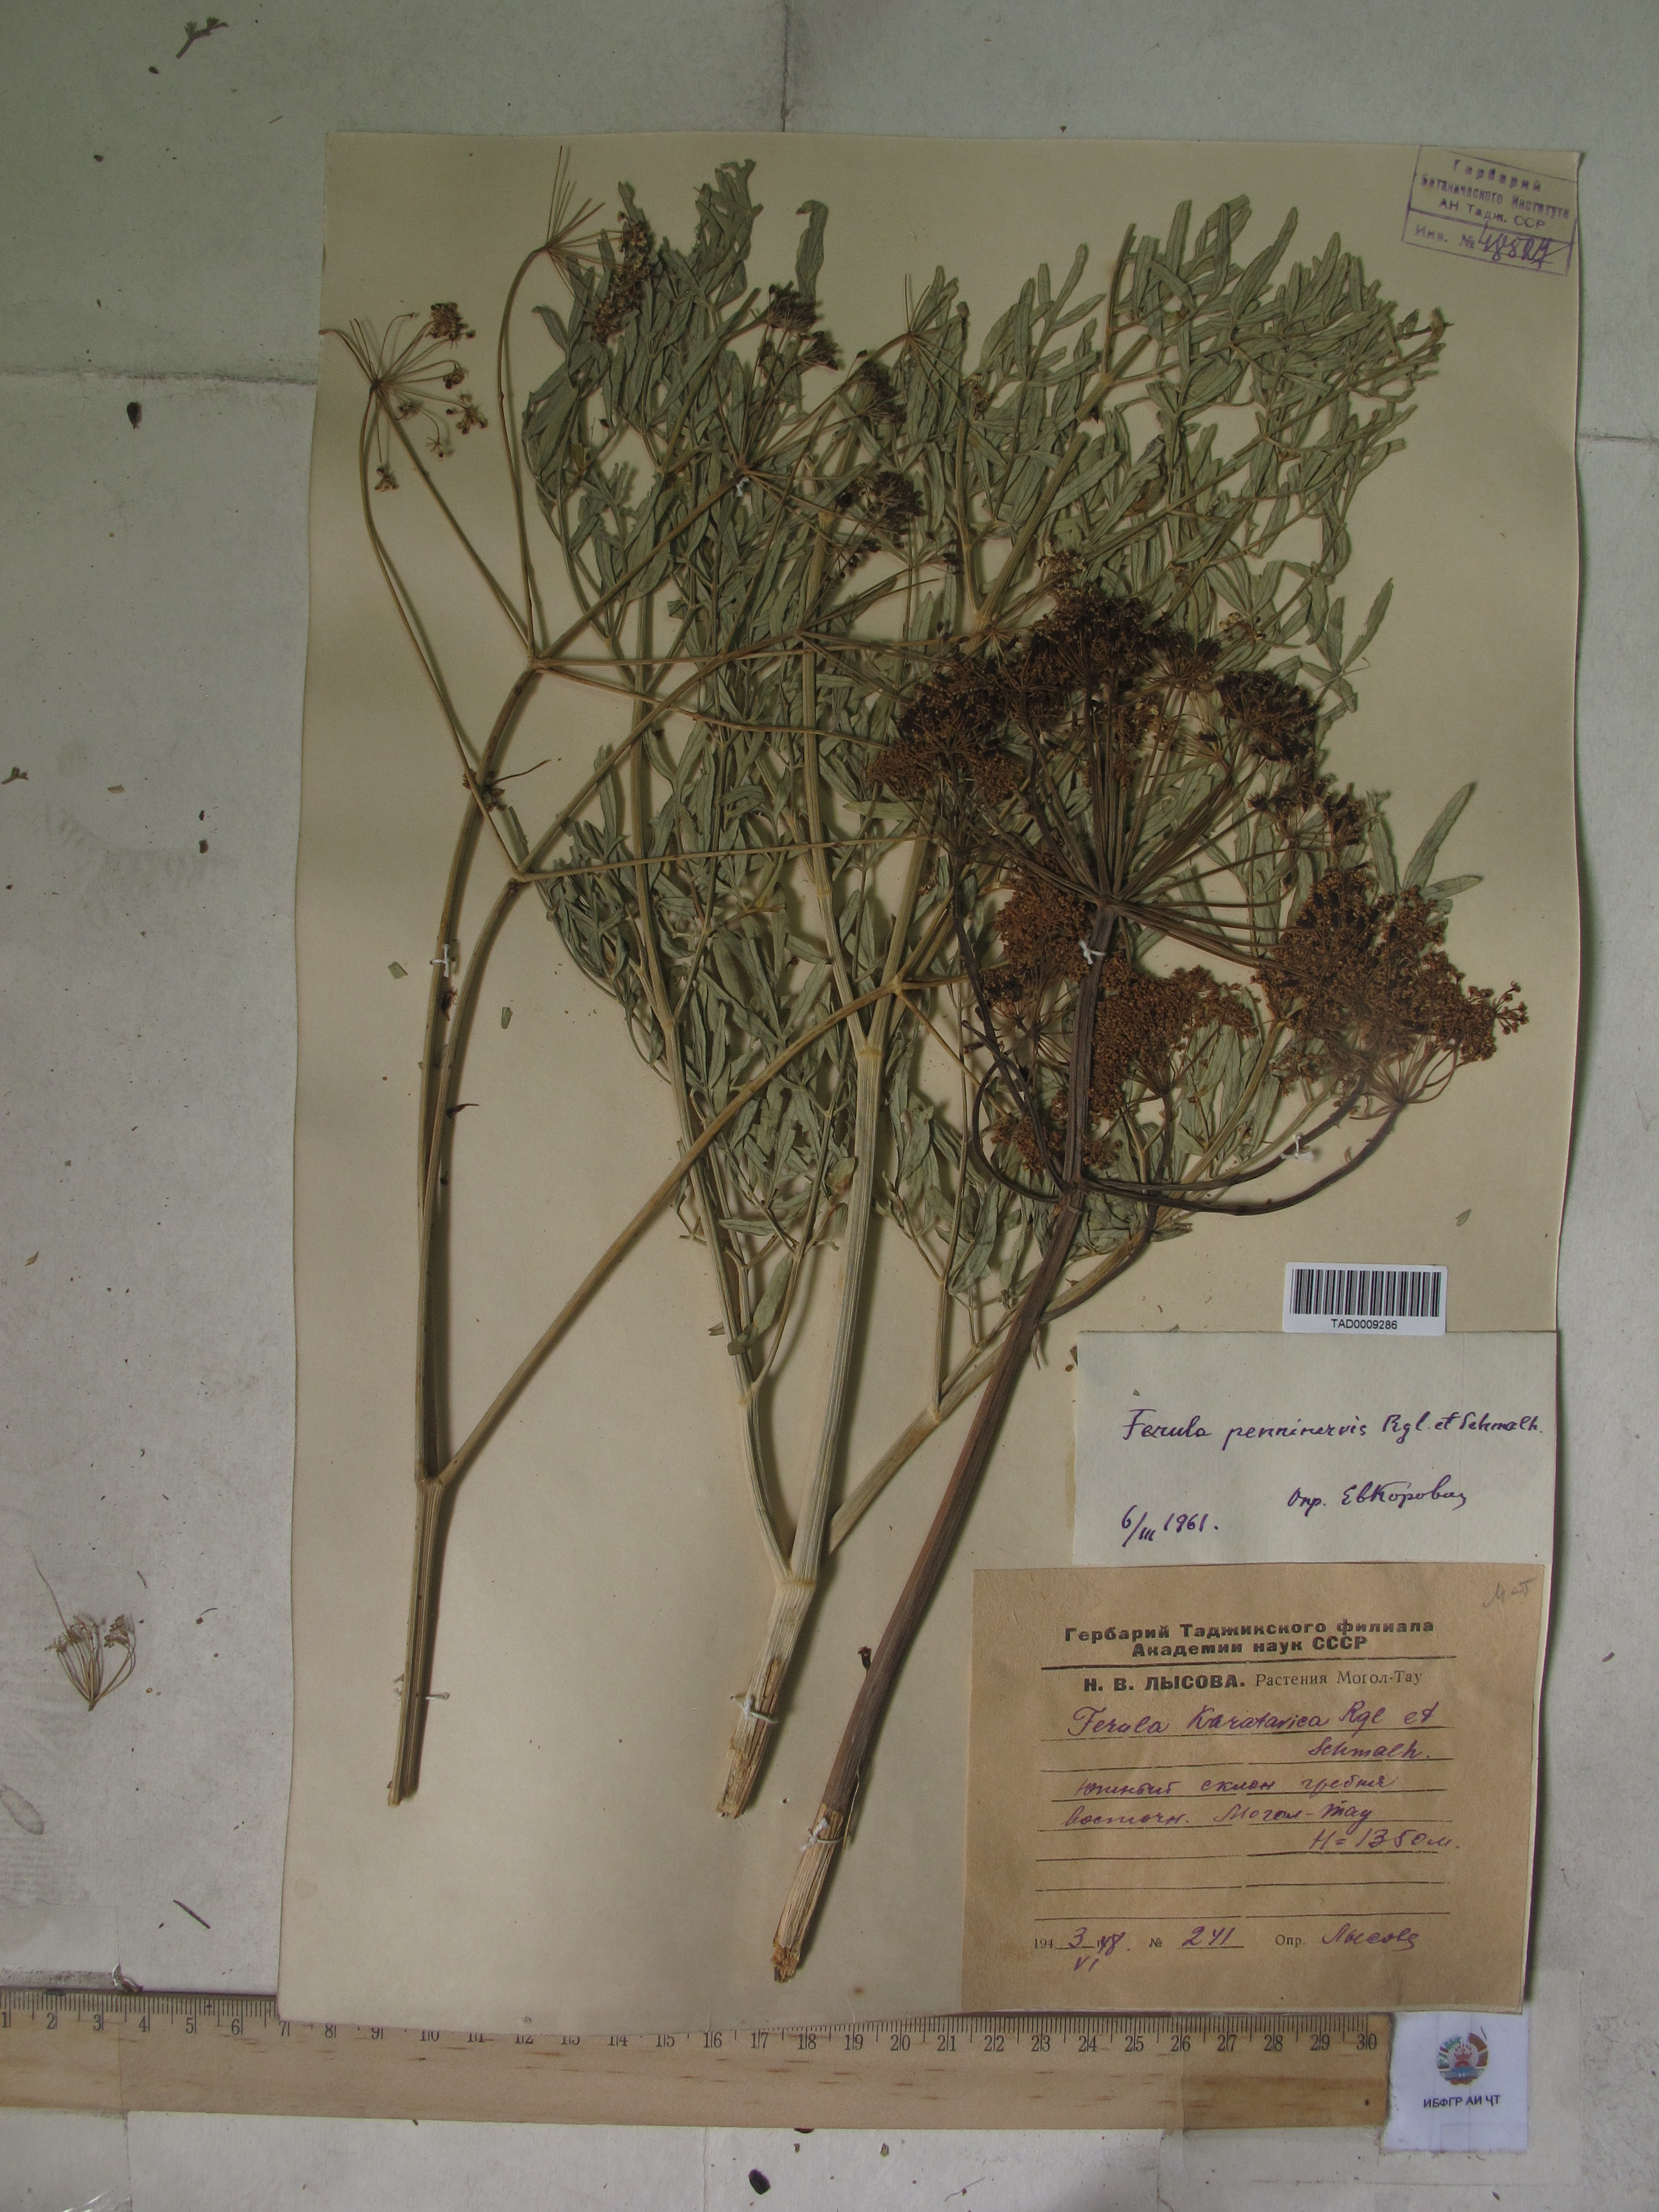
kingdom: Plantae
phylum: Tracheophyta
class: Magnoliopsida
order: Apiales
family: Apiaceae
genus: Ferula
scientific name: Ferula
